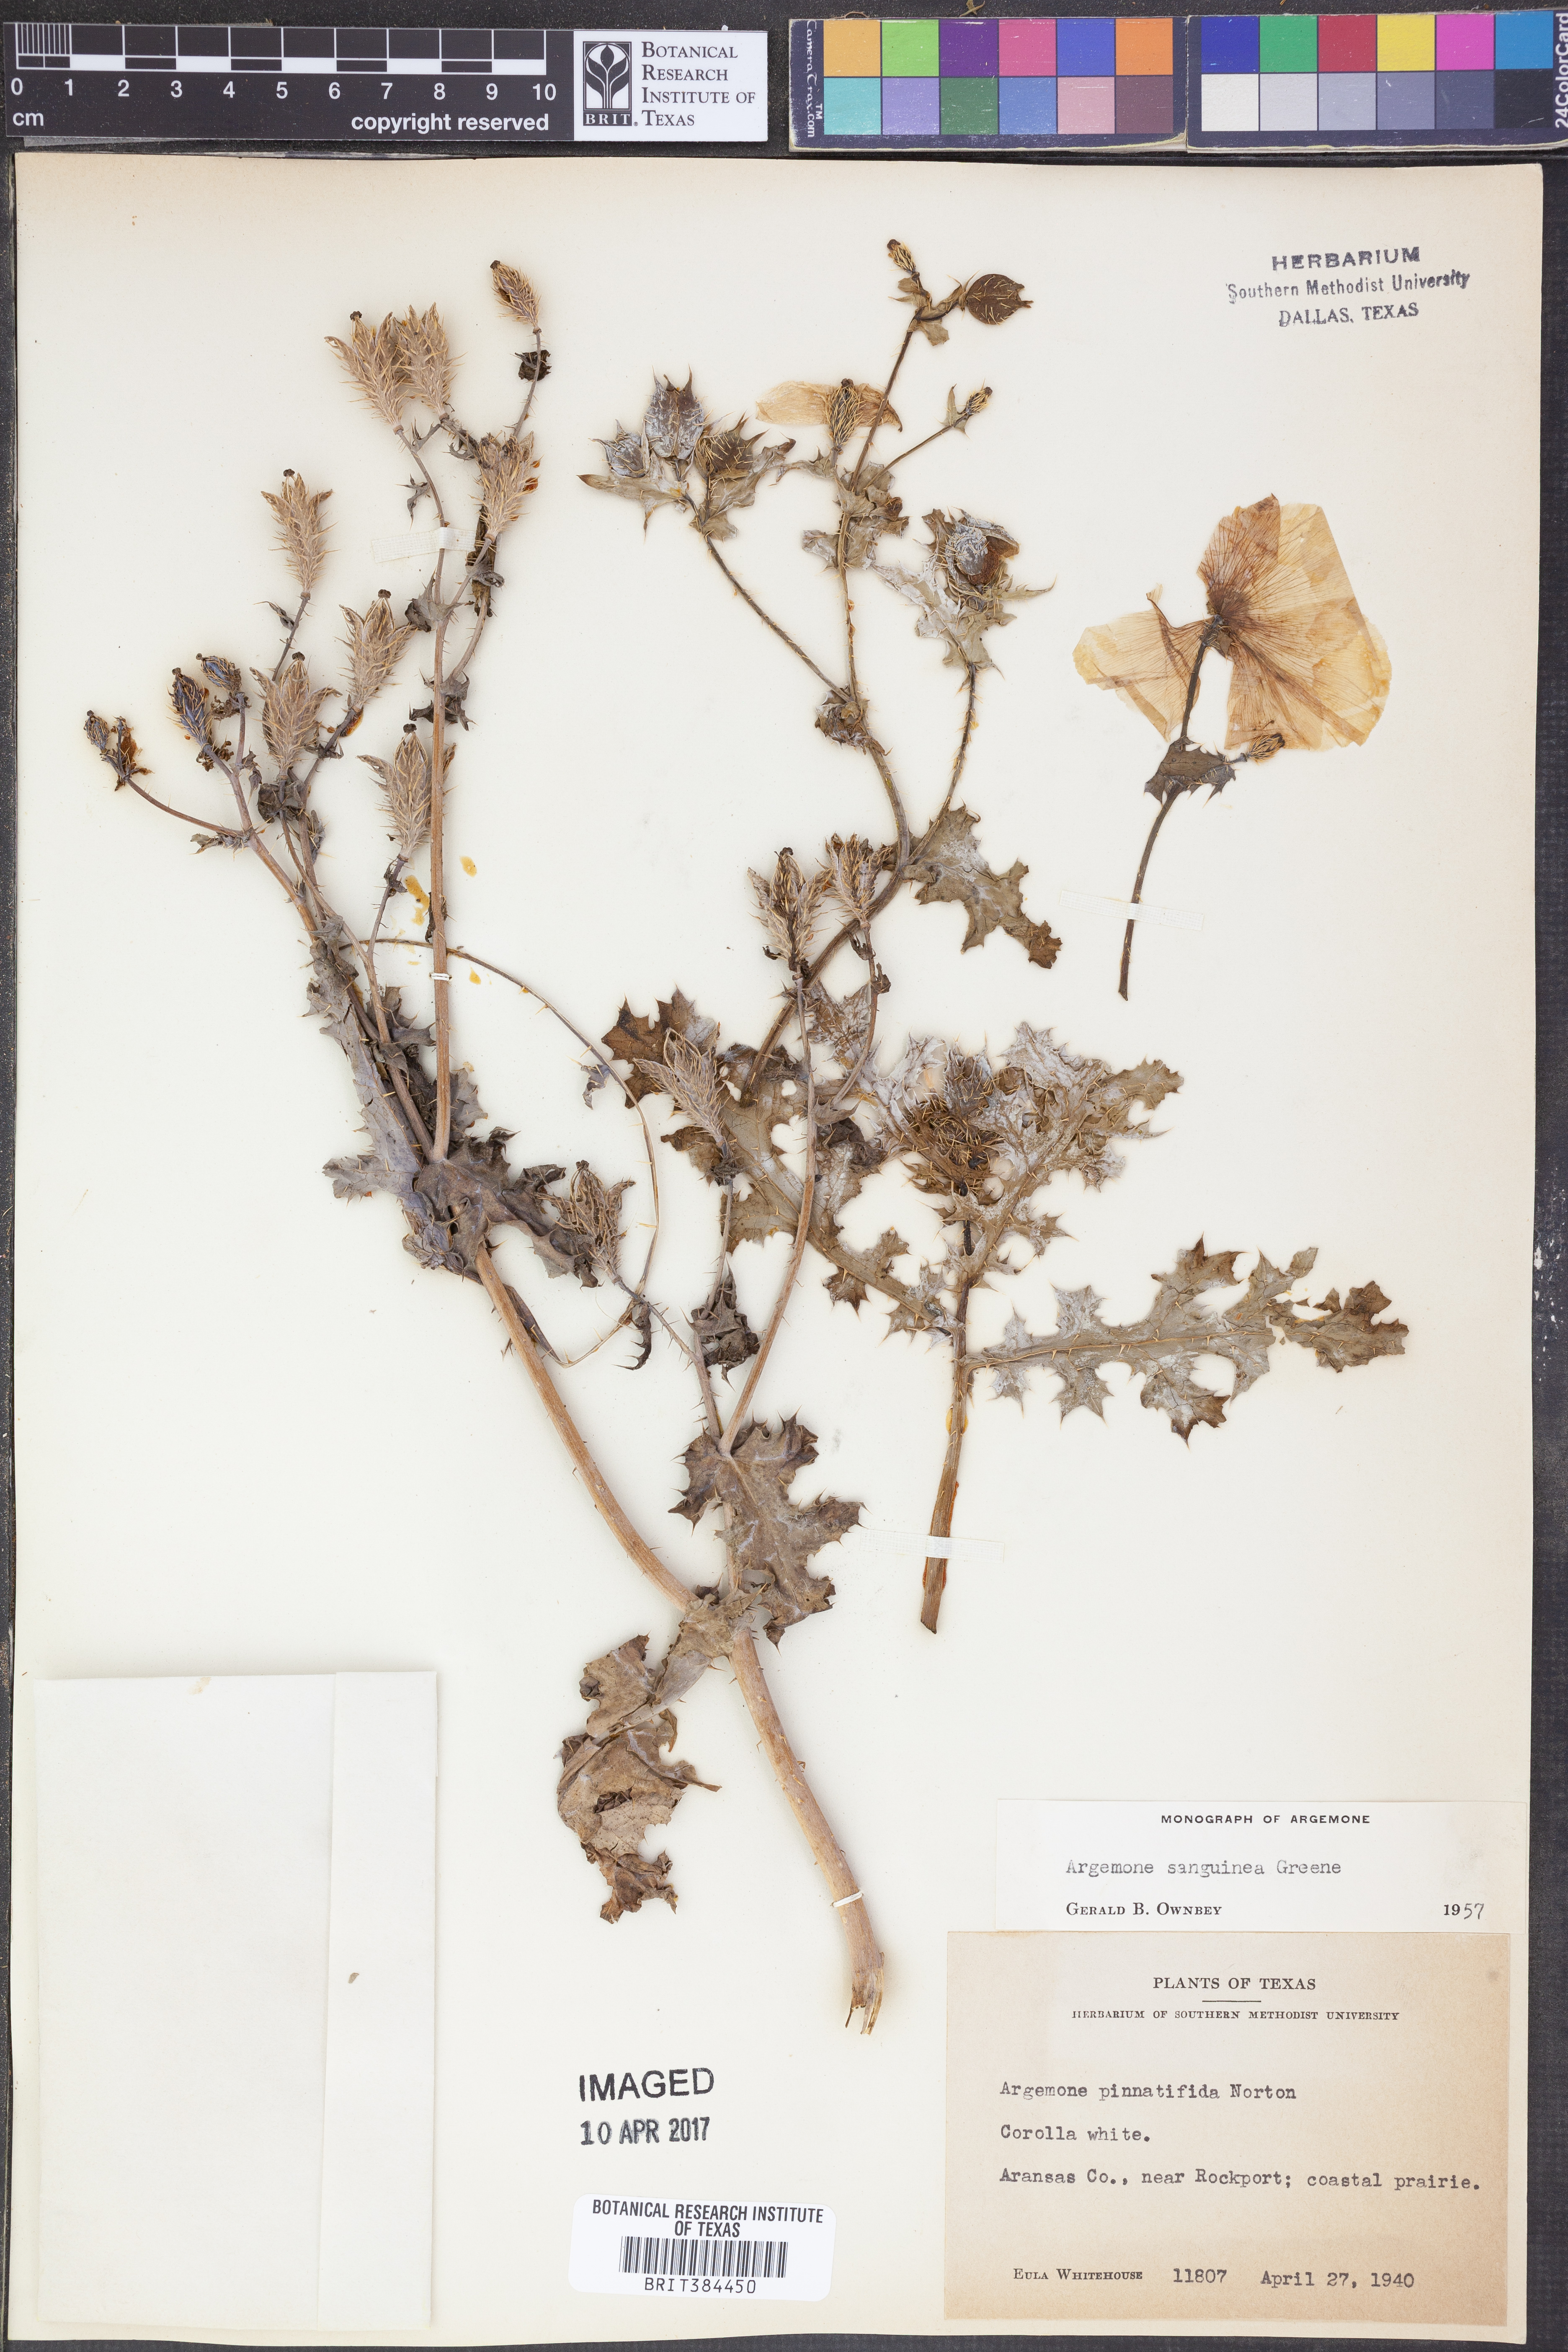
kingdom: Plantae
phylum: Tracheophyta
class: Magnoliopsida
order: Ranunculales
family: Papaveraceae
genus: Argemone
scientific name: Argemone sanguinea
